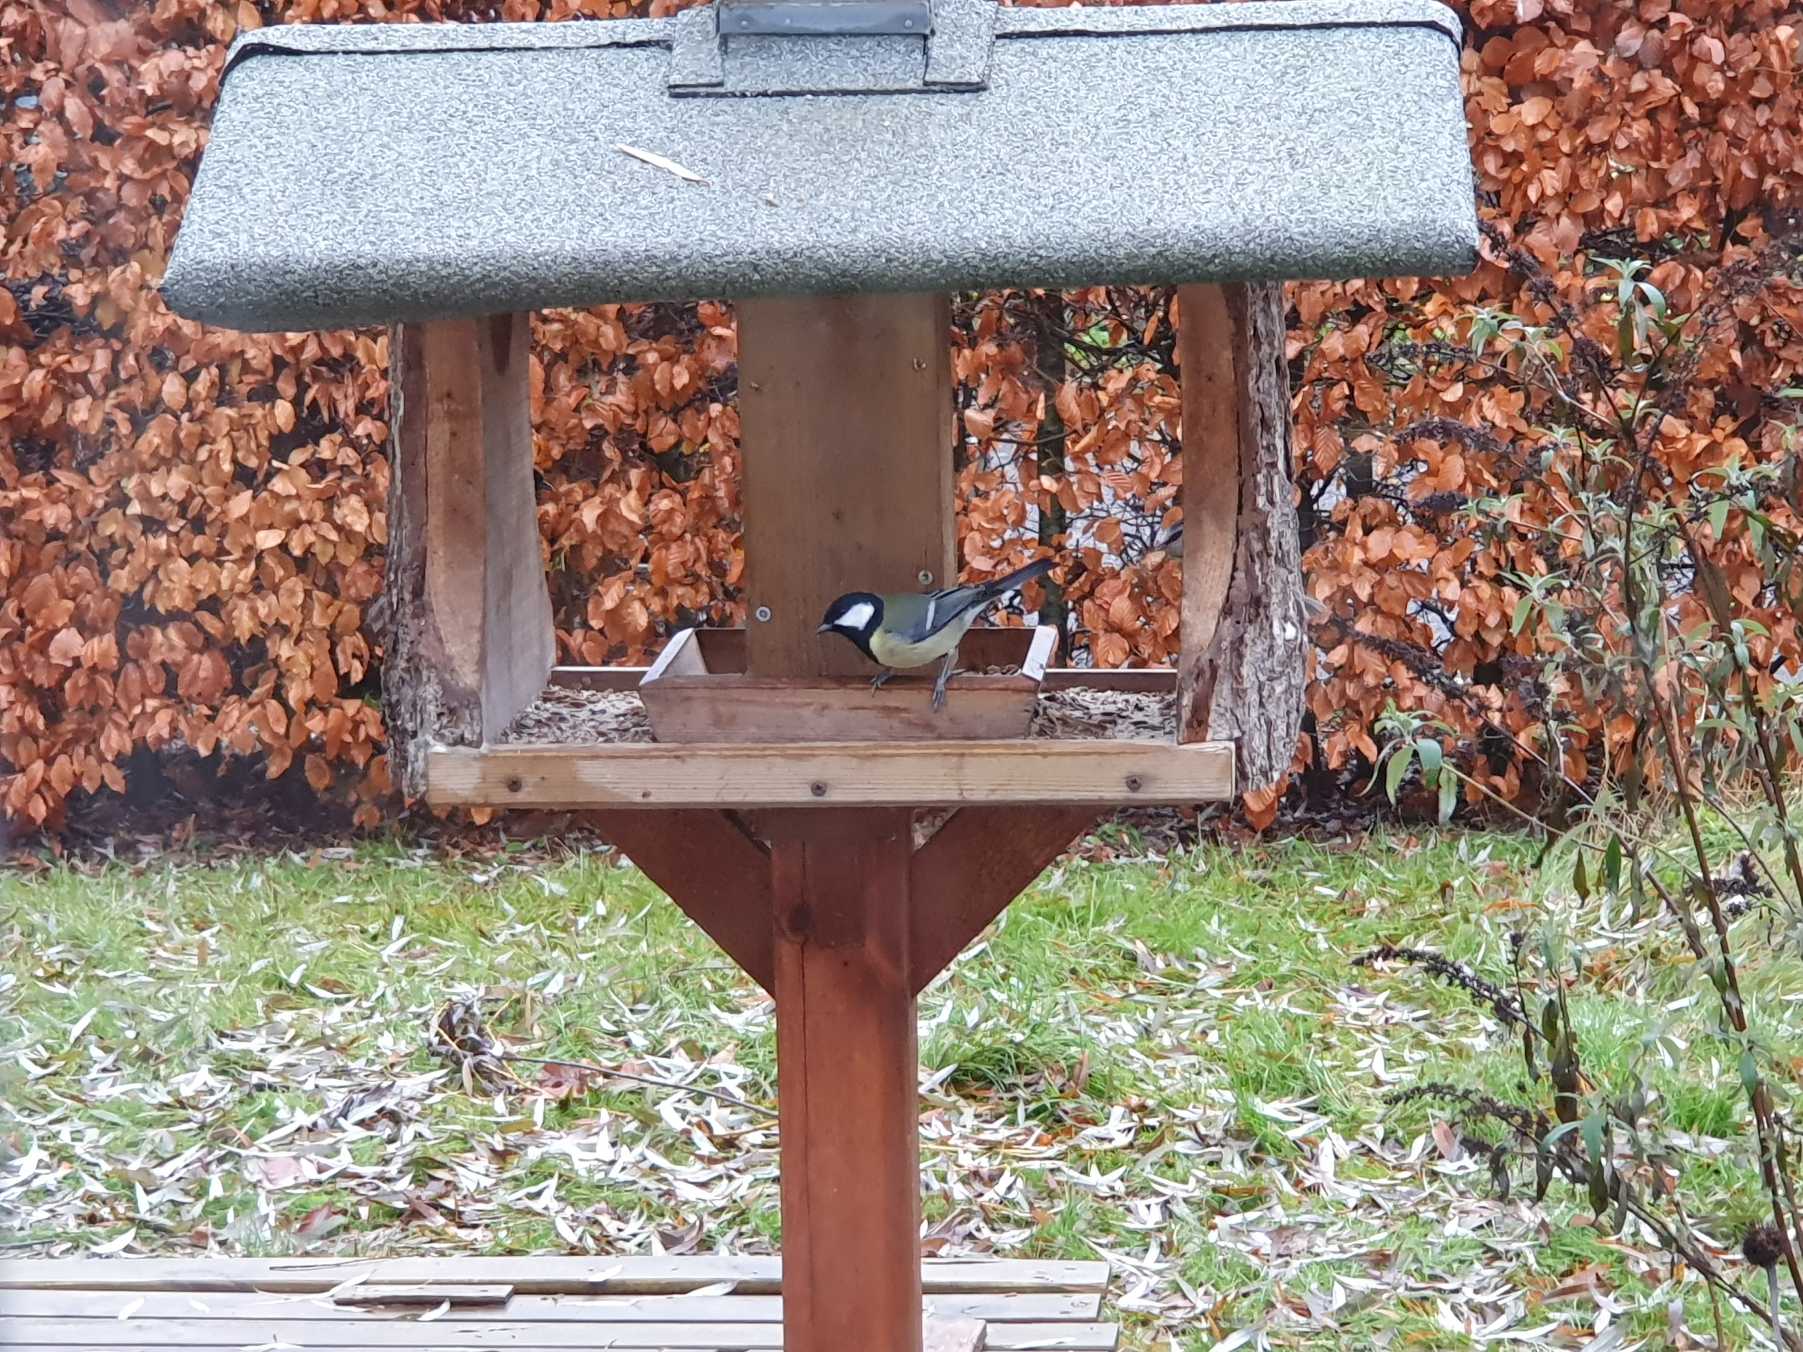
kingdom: Animalia
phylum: Chordata
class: Aves
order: Passeriformes
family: Paridae
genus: Parus
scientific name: Parus major
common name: Musvit
